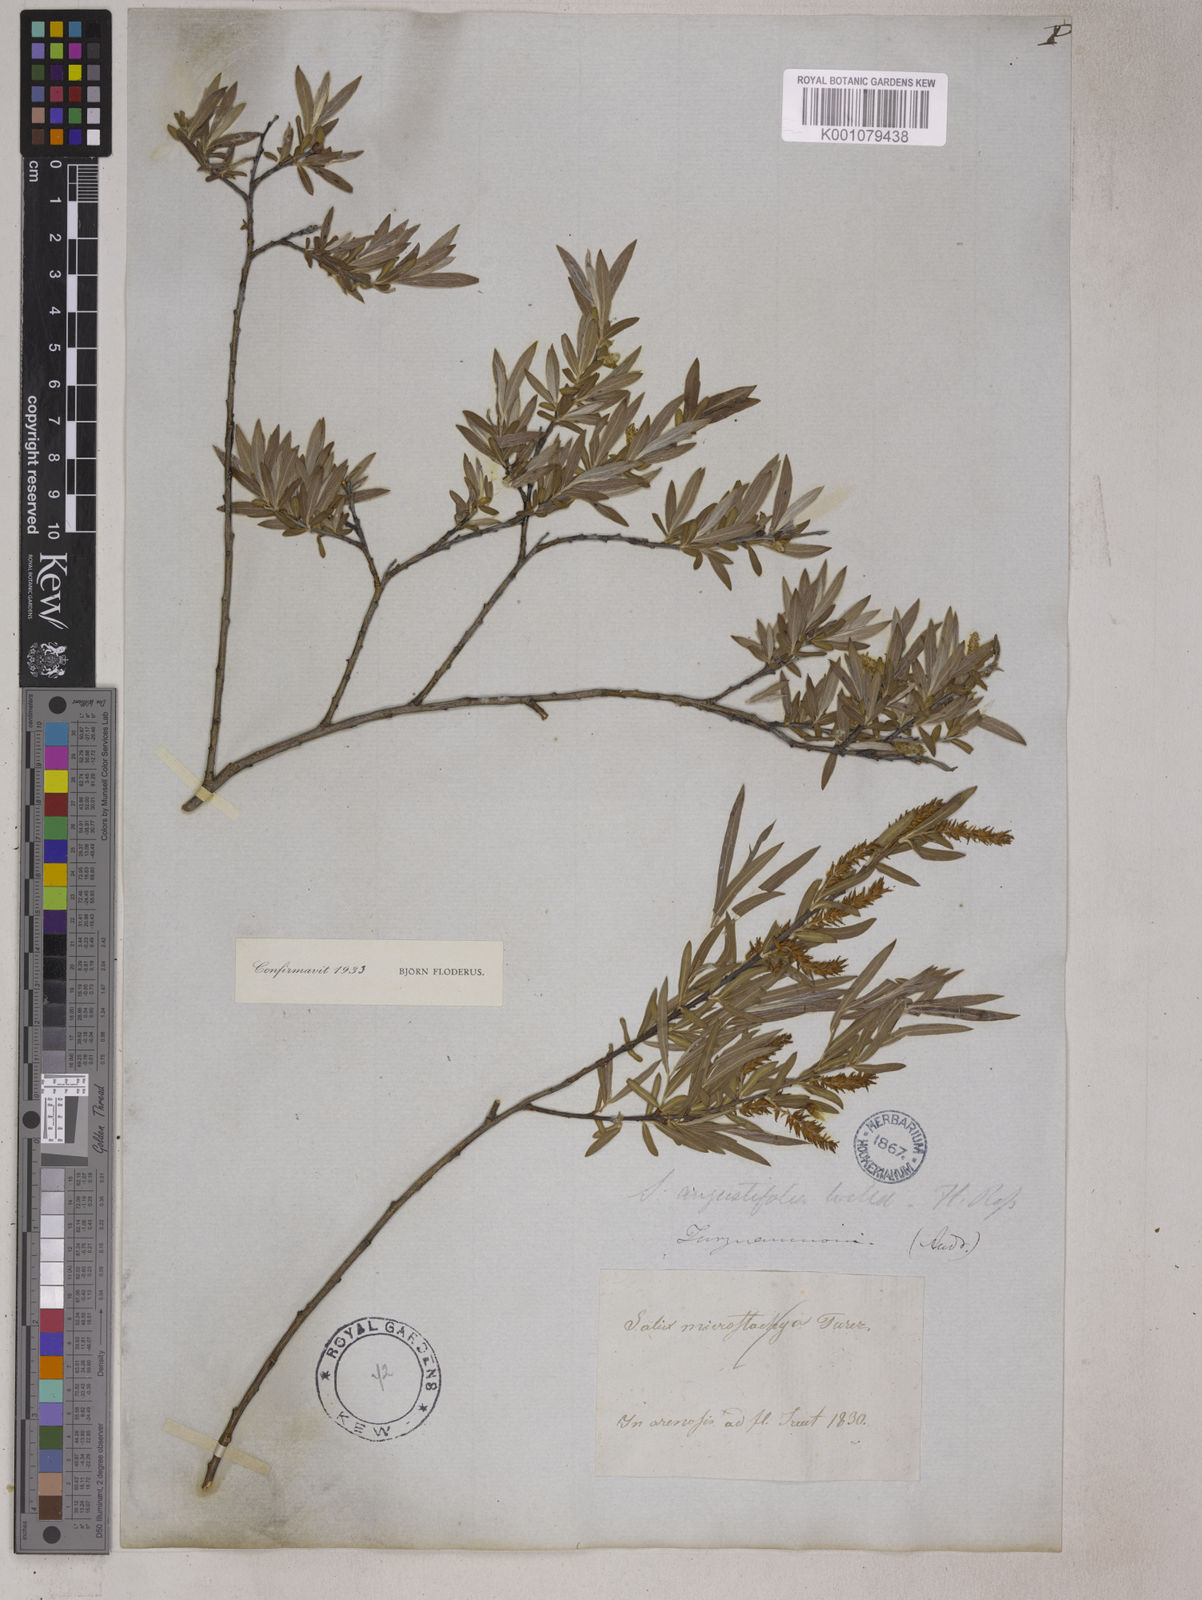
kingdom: Plantae
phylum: Tracheophyta
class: Magnoliopsida
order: Malpighiales
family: Salicaceae
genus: Salix
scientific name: Salix
